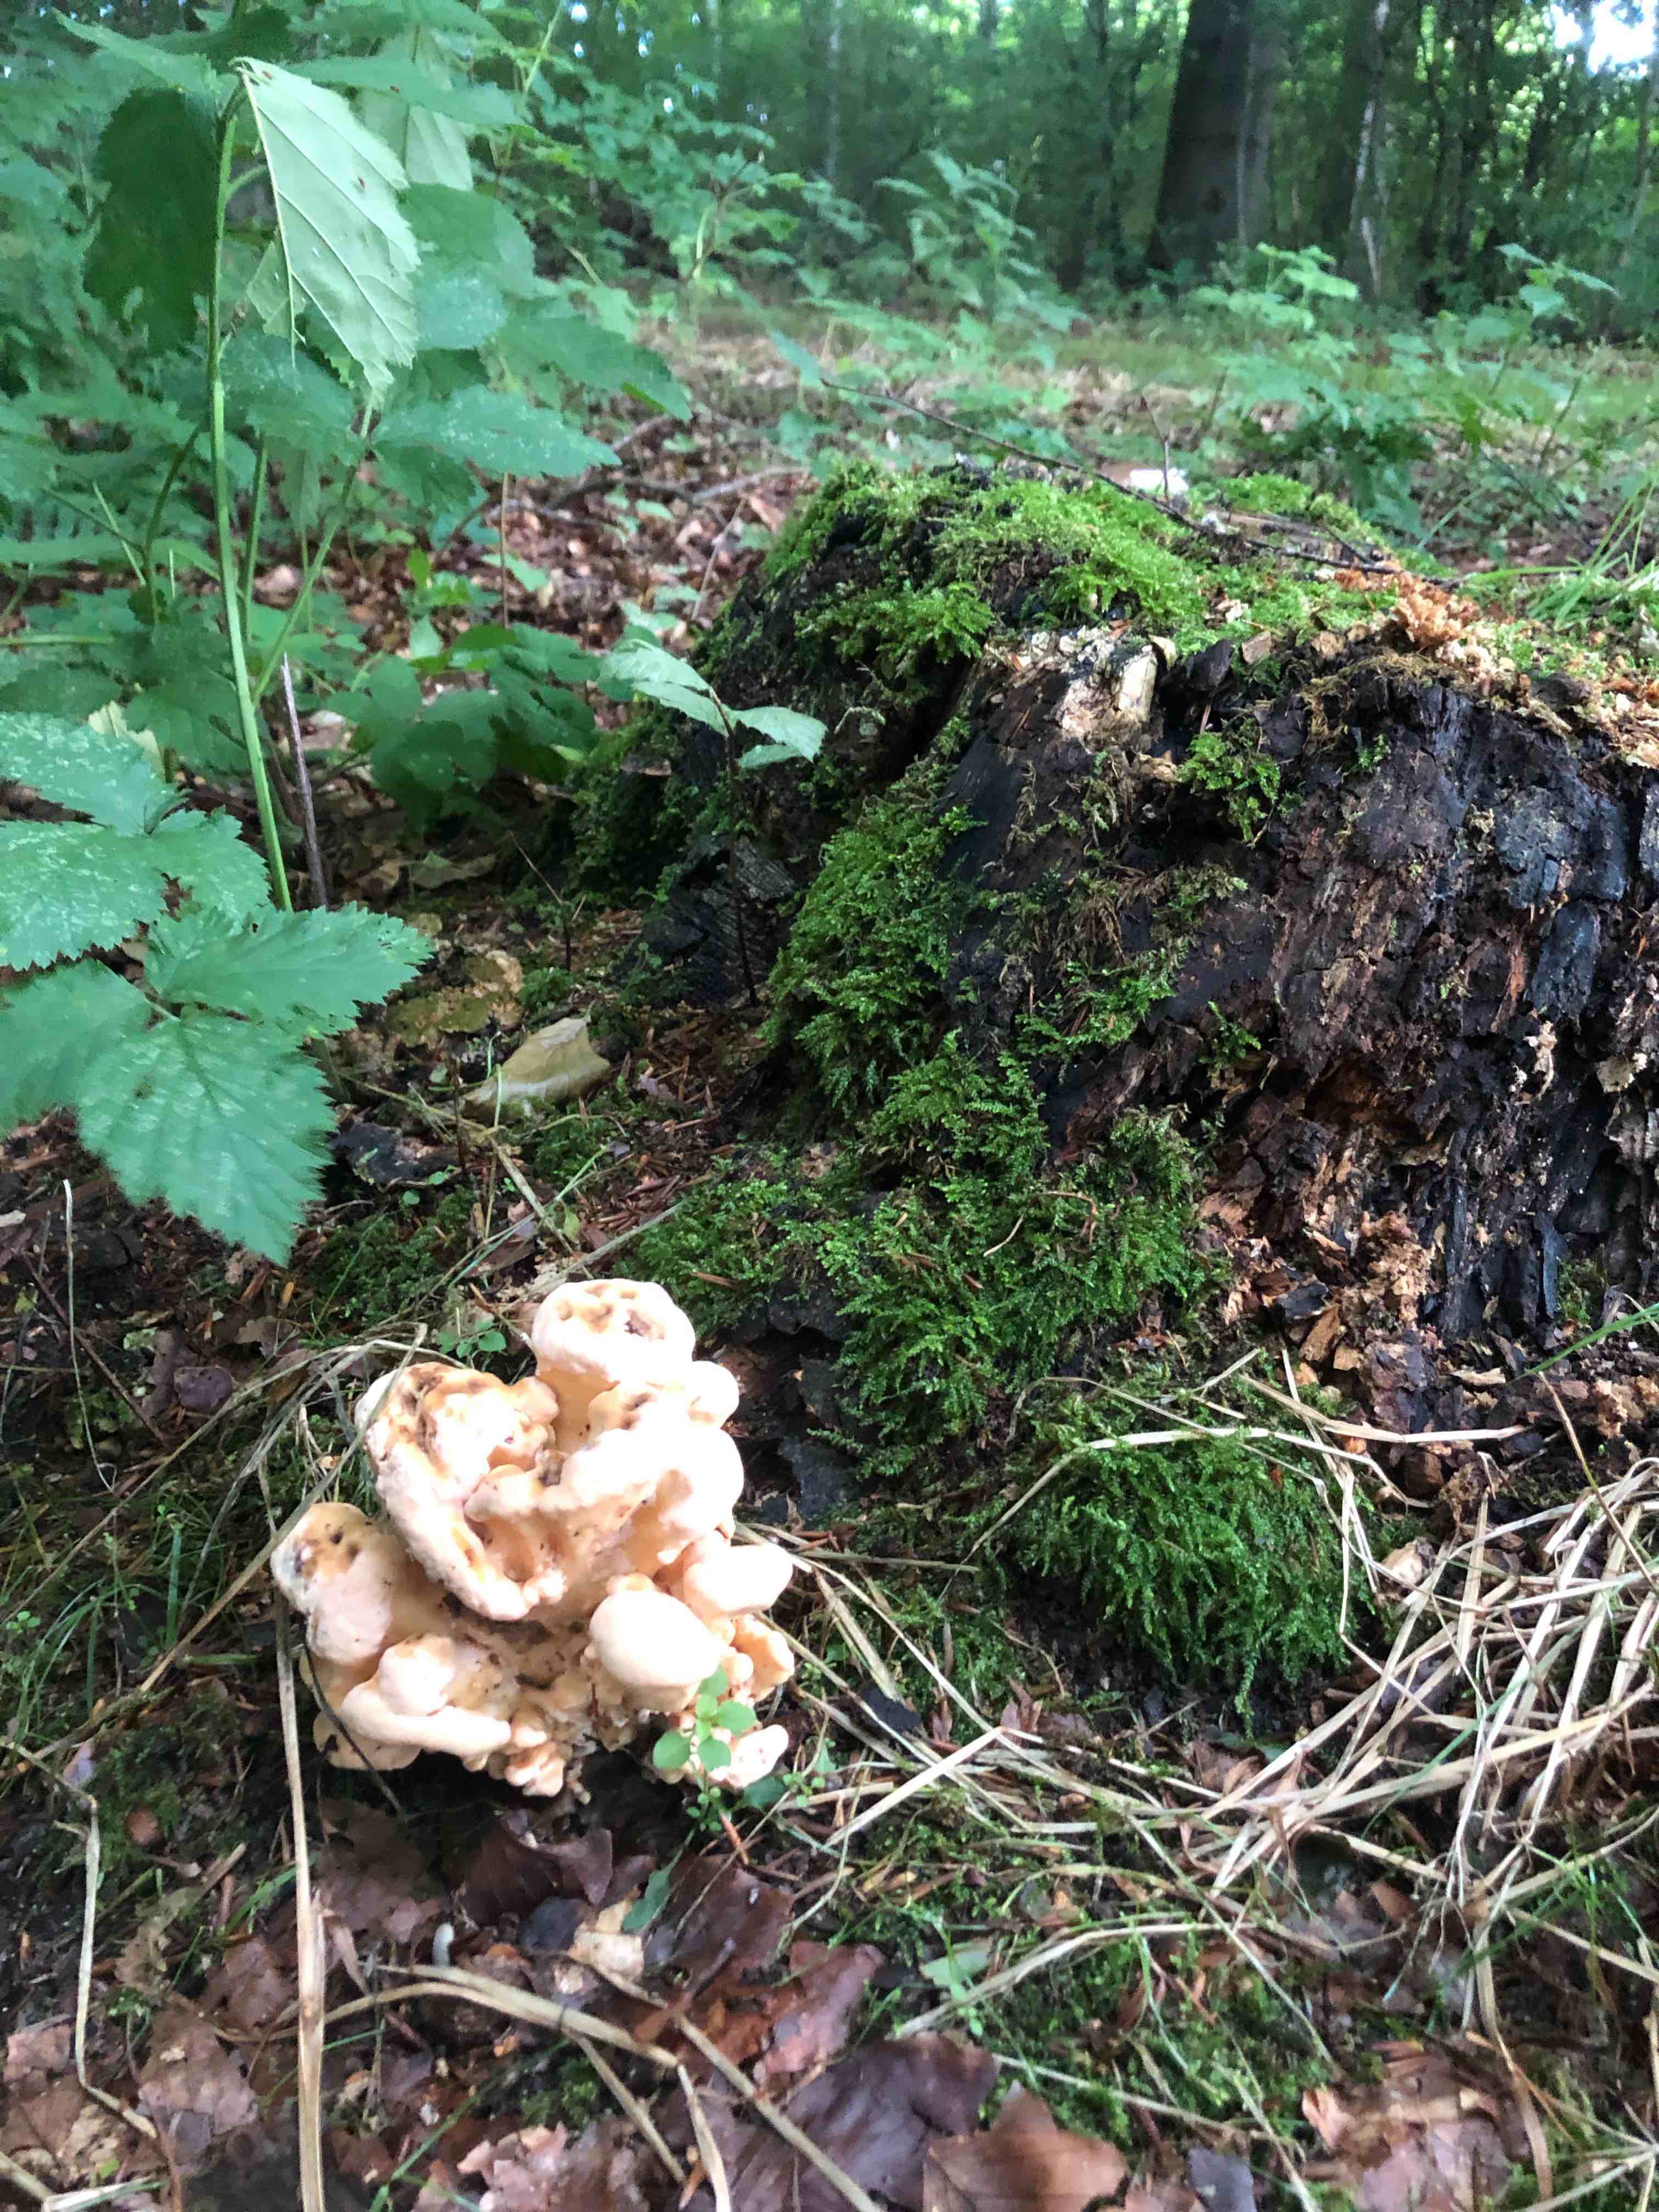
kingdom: Fungi
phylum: Basidiomycota
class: Agaricomycetes
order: Polyporales
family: Meripilaceae
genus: Meripilus
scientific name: Meripilus giganteus
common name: kæmpeporesvamp
